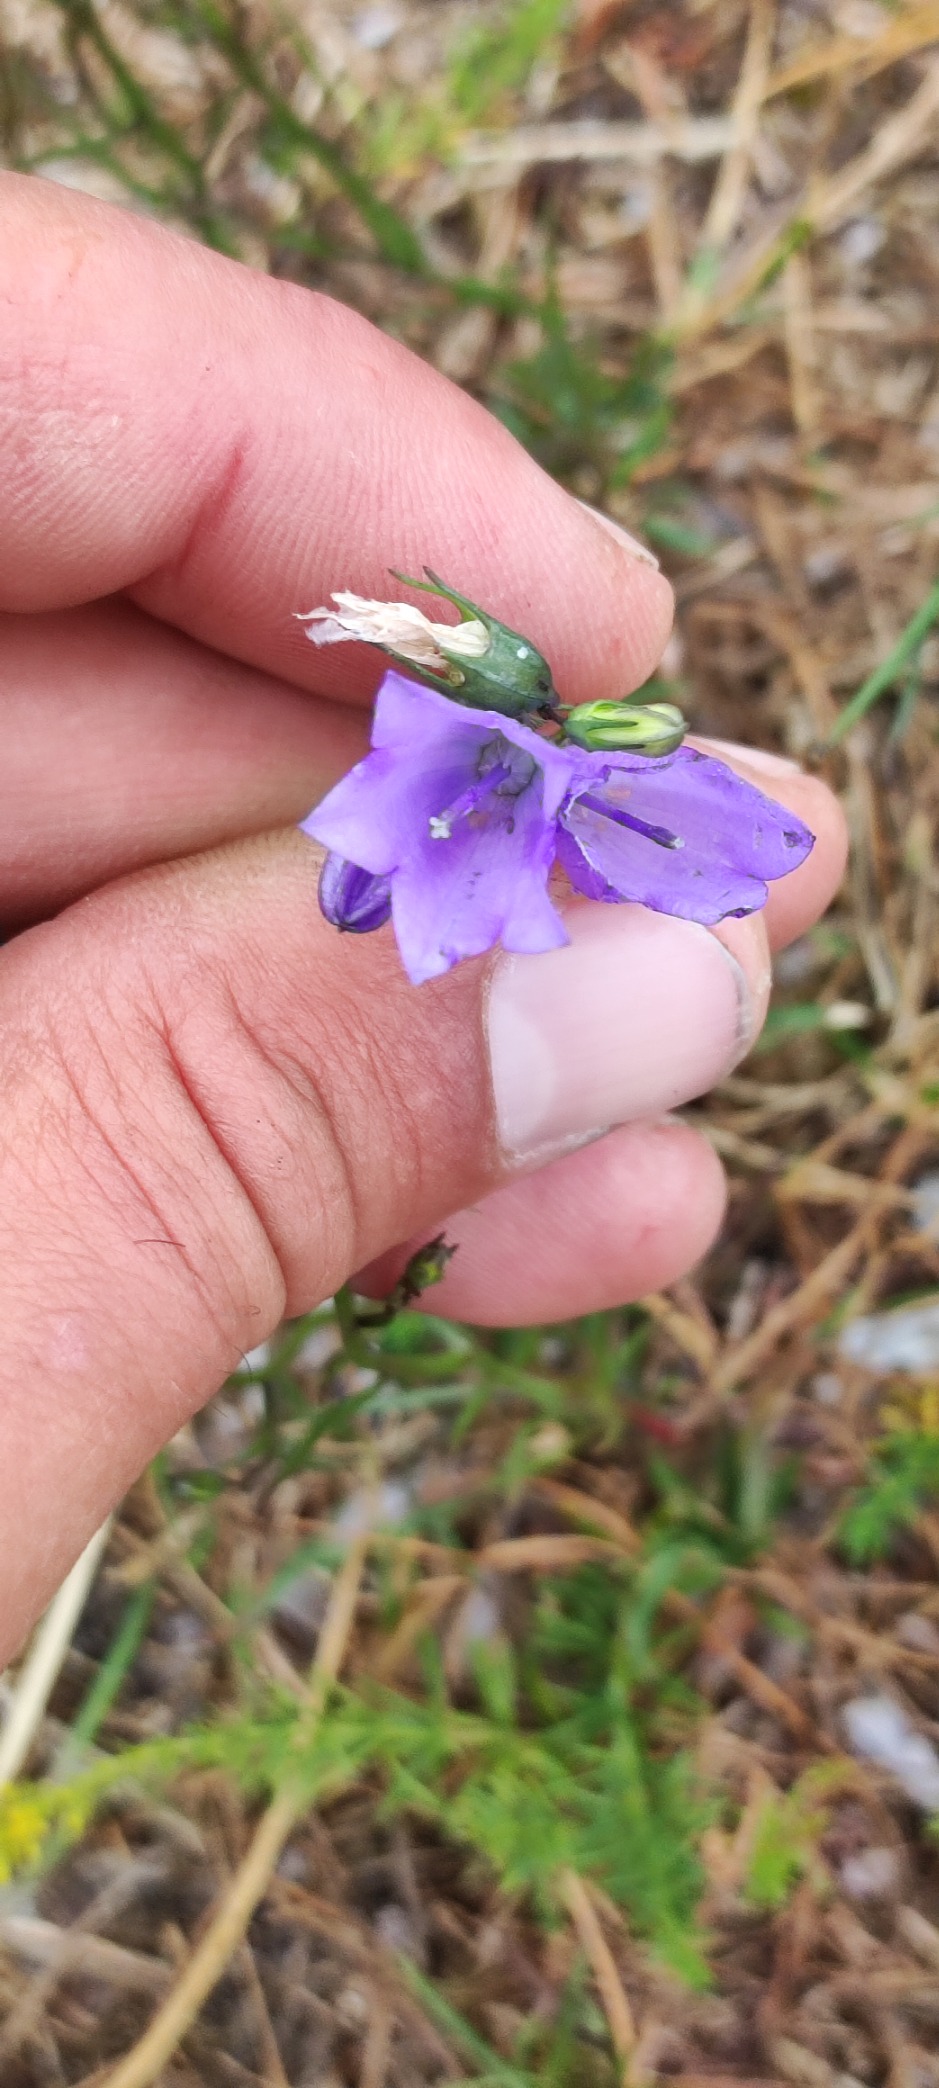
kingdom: Plantae
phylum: Tracheophyta
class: Magnoliopsida
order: Asterales
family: Campanulaceae
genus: Campanula
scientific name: Campanula rotundifolia
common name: Liden klokke
